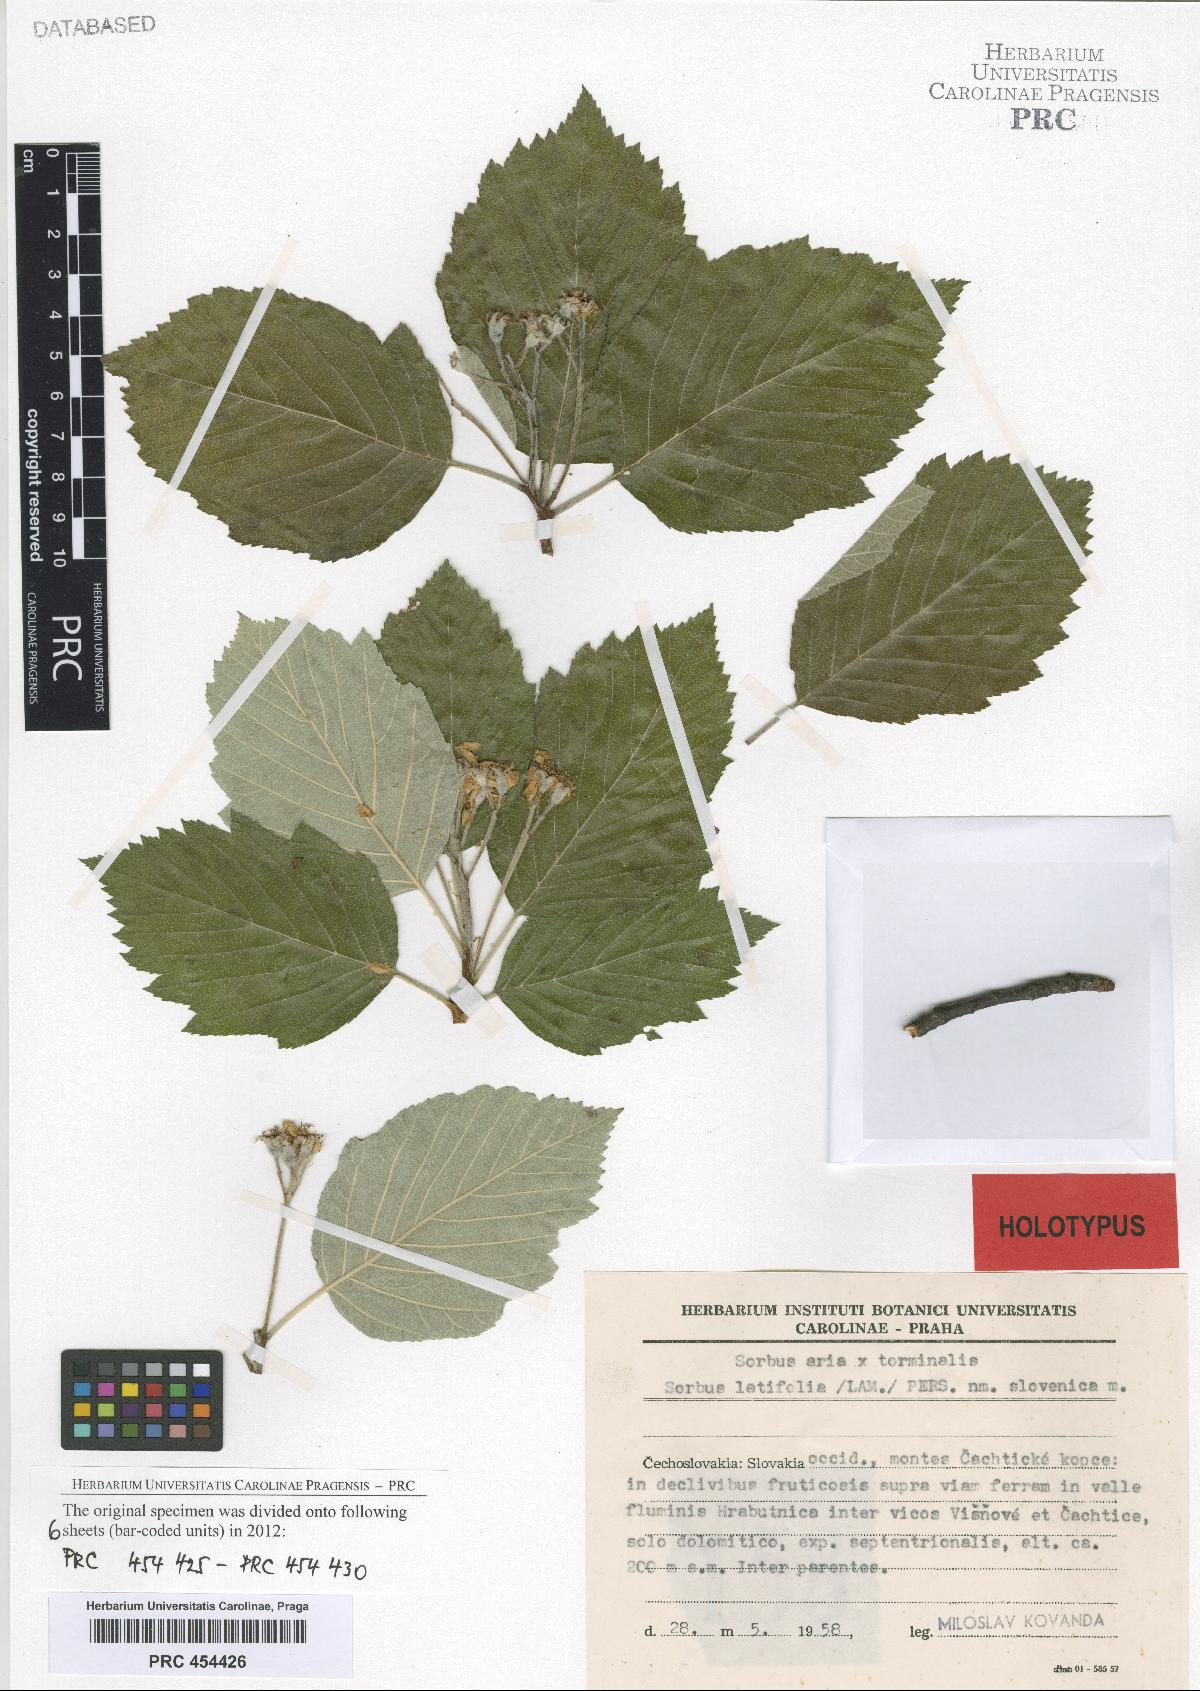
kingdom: Plantae
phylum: Tracheophyta
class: Magnoliopsida
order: Rosales
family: Rosaceae
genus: Karpatiosorbus
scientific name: Karpatiosorbus slovenica
